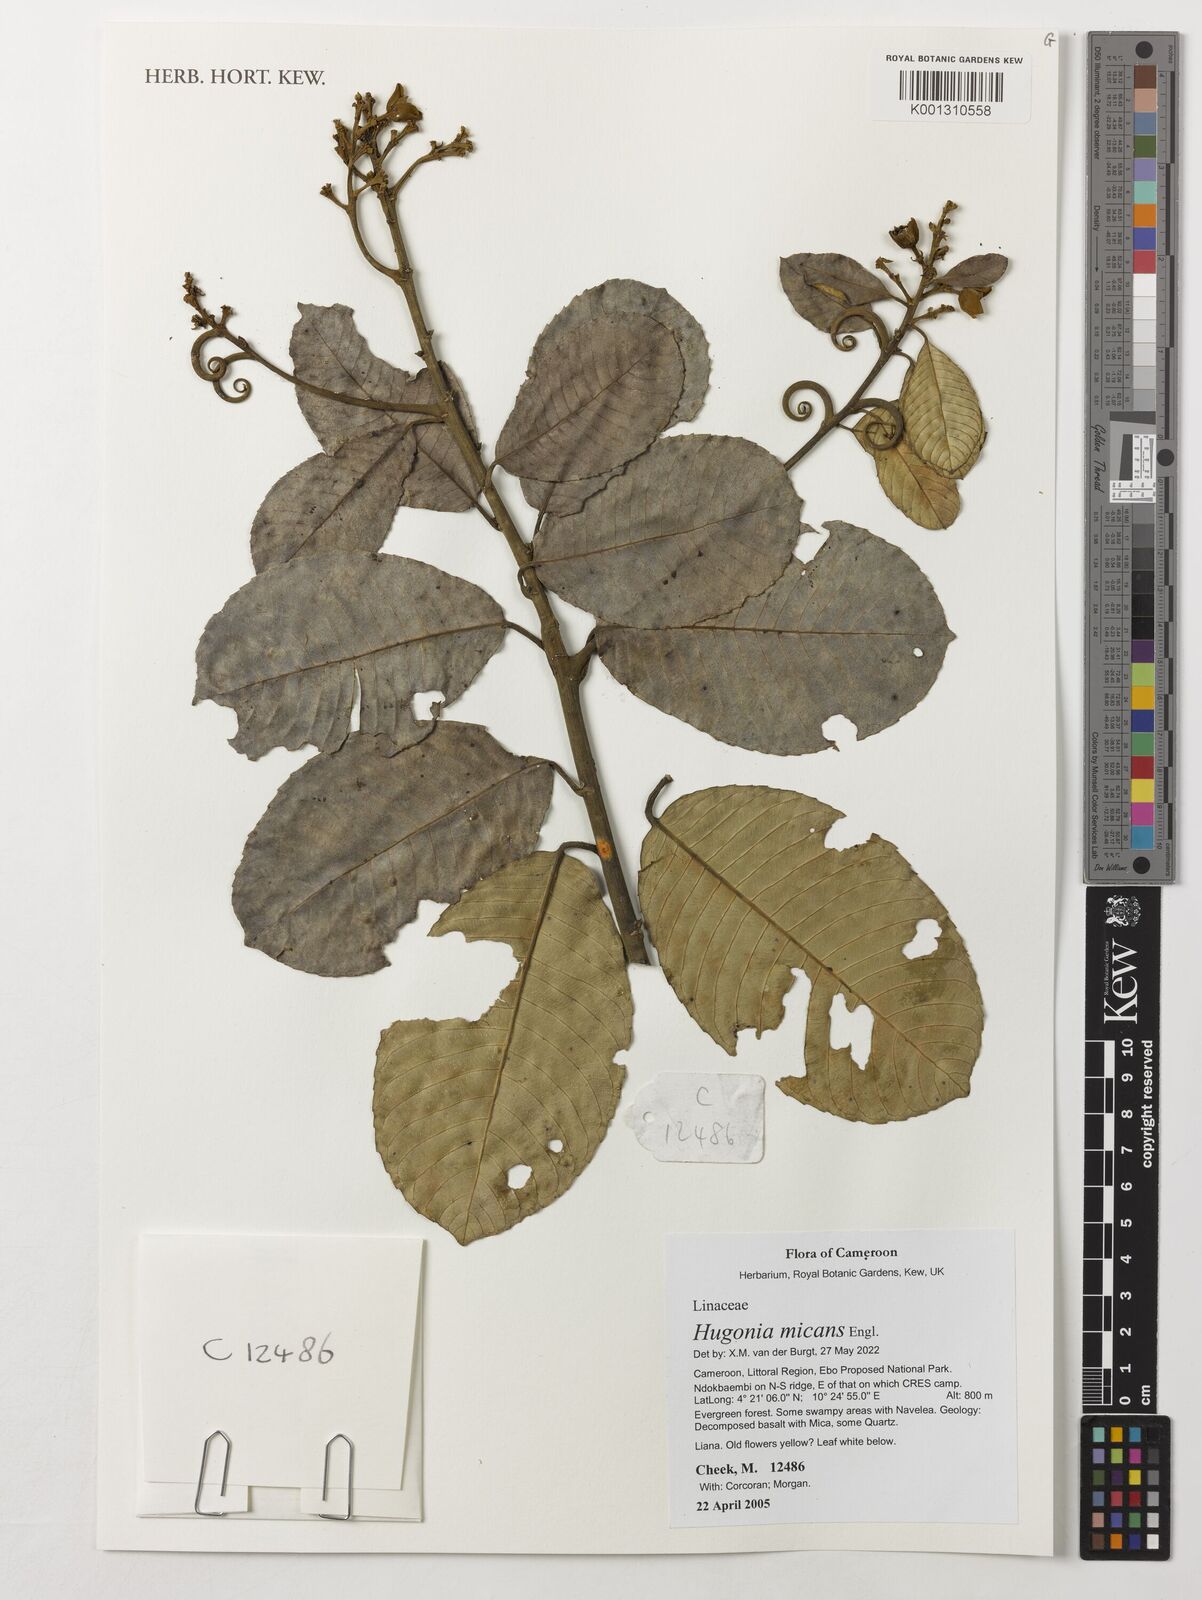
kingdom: Plantae
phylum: Tracheophyta
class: Magnoliopsida
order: Malpighiales
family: Linaceae
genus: Hugonia
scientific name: Hugonia micans
